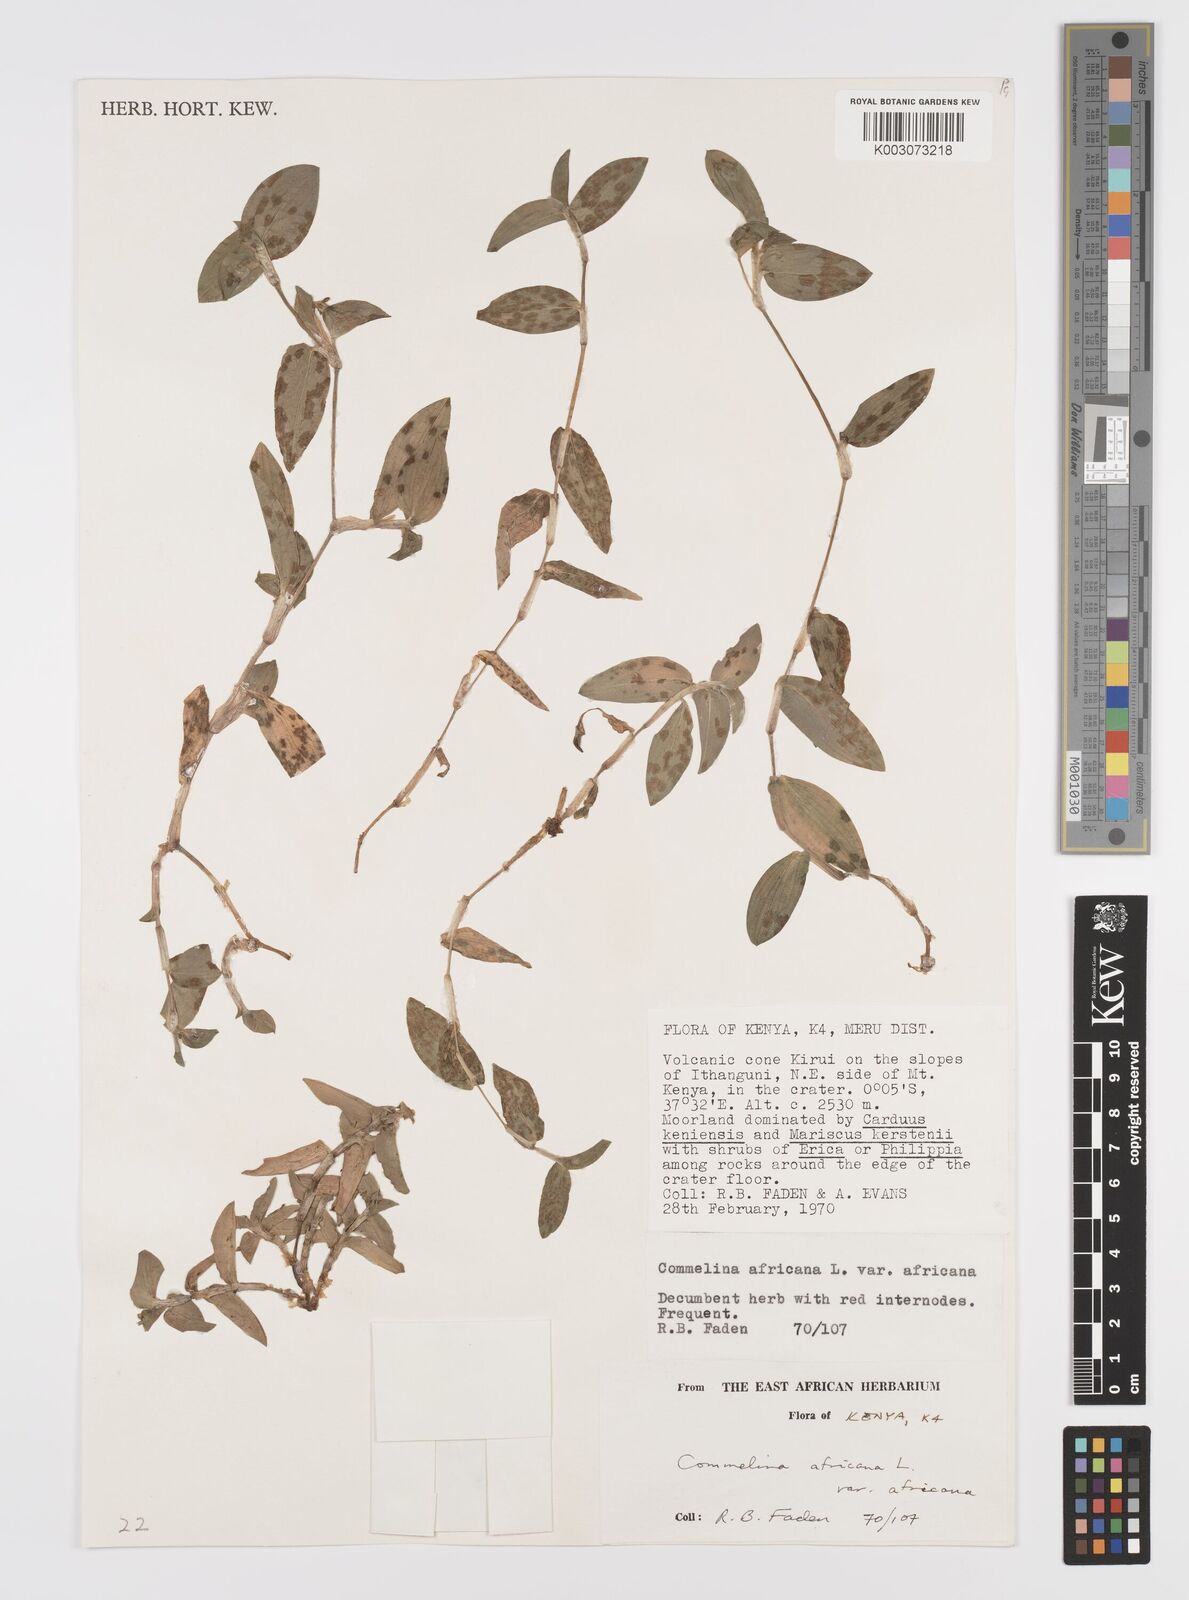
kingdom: Plantae
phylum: Tracheophyta
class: Liliopsida
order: Commelinales
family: Commelinaceae
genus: Commelina
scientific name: Commelina africana
